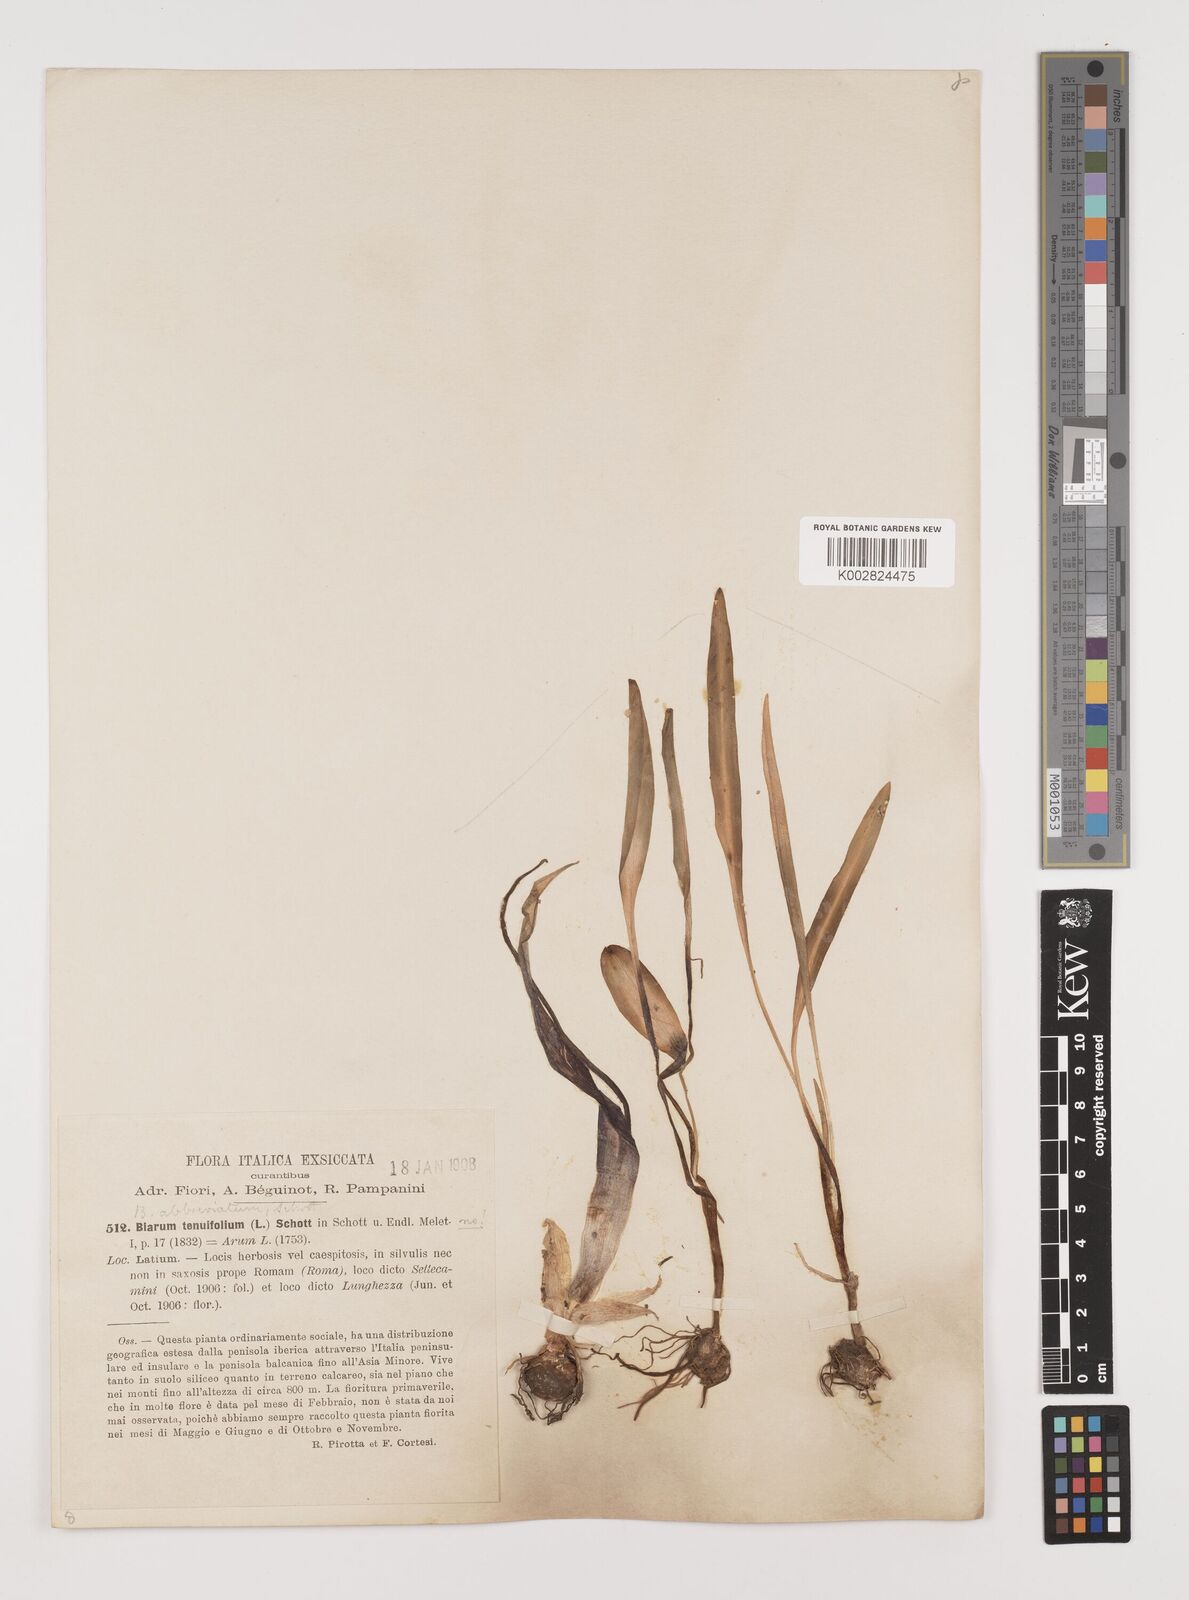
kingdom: Plantae
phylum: Tracheophyta
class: Liliopsida
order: Alismatales
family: Araceae
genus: Biarum
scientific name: Biarum tenuifolium
